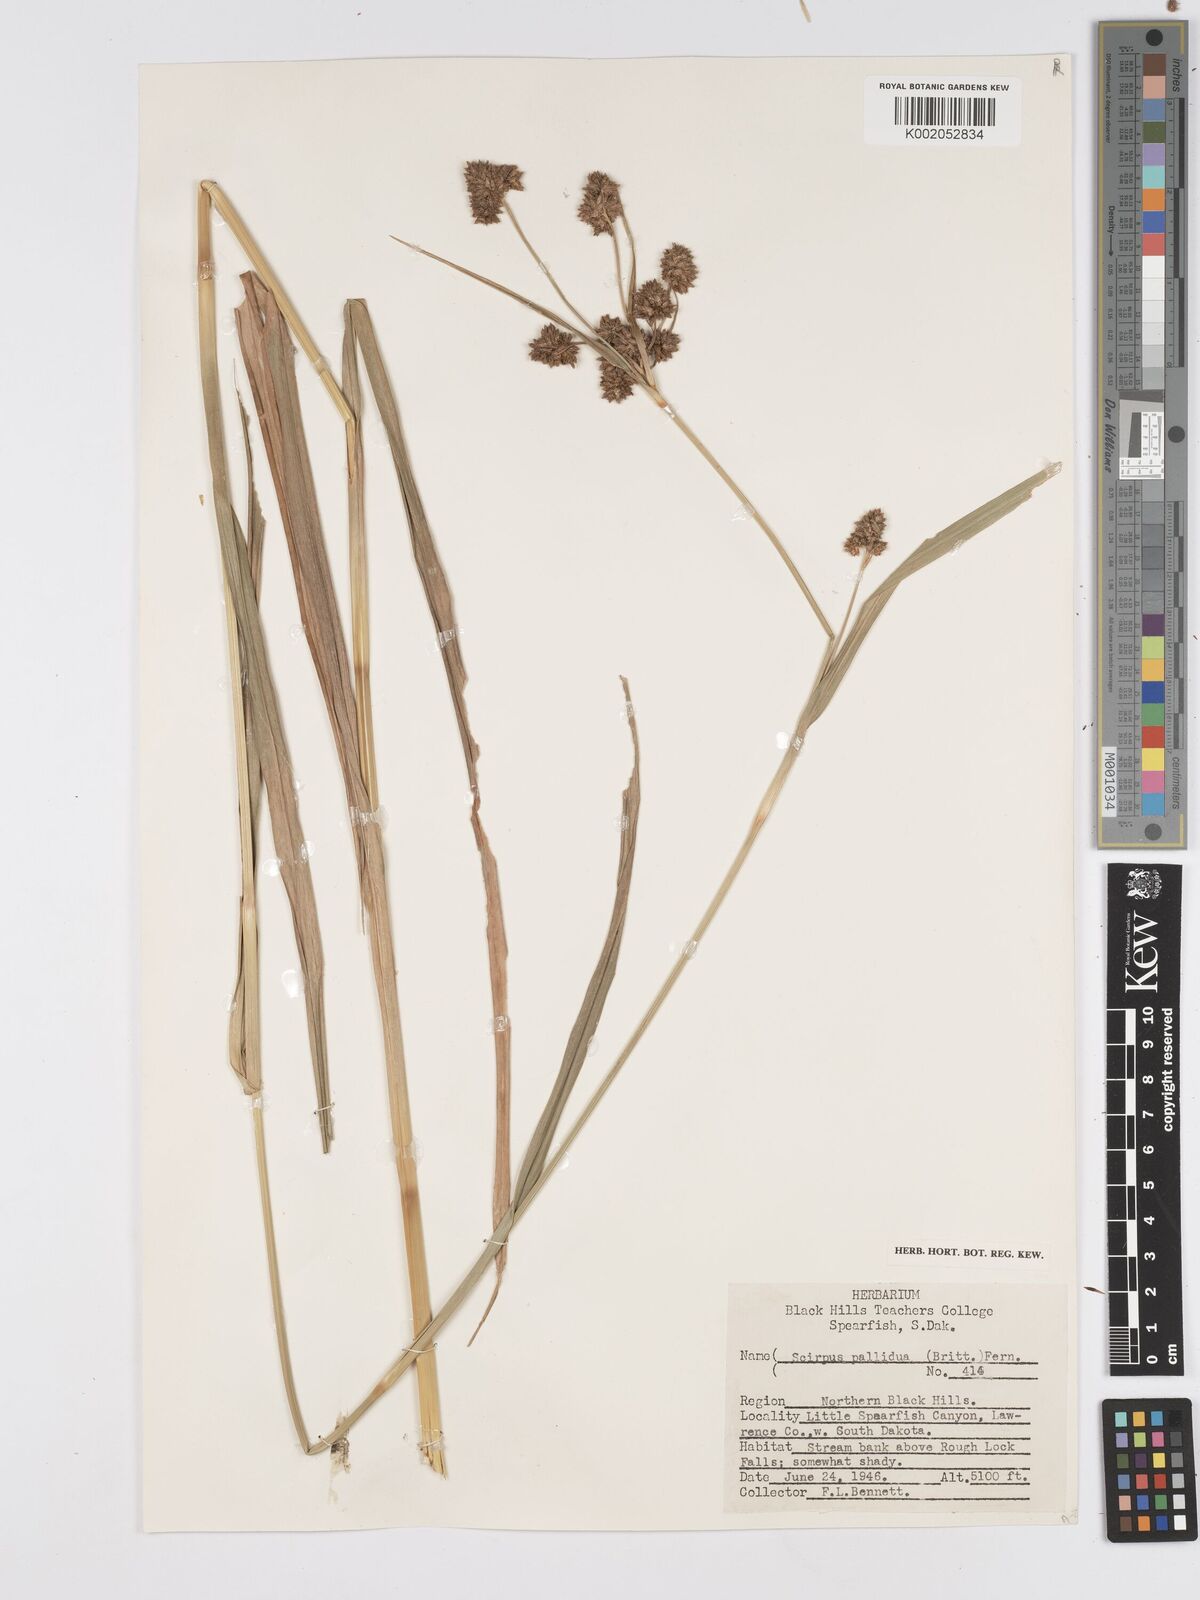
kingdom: Plantae
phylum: Tracheophyta
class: Liliopsida
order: Poales
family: Cyperaceae
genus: Scirpus
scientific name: Scirpus pallidus
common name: Cloaked bulrush
